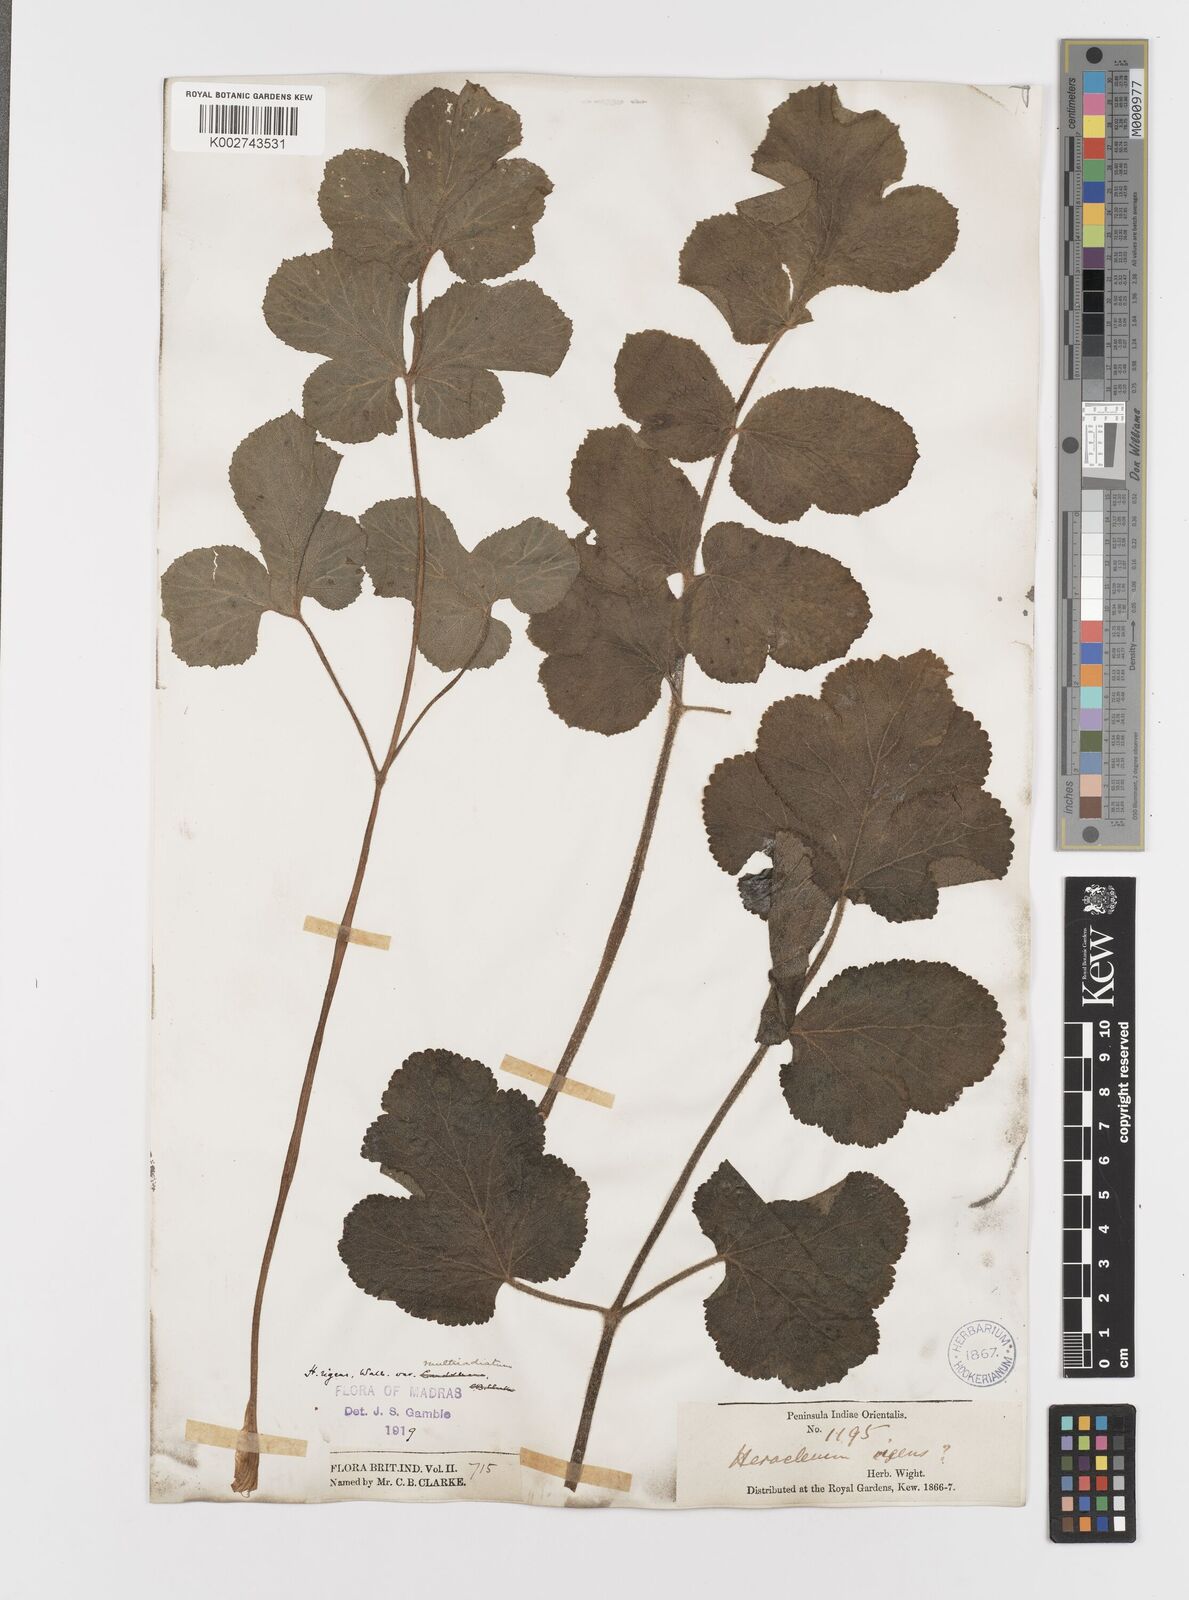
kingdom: Plantae
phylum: Tracheophyta
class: Magnoliopsida
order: Apiales
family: Apiaceae
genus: Tetrataenium
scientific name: Tetrataenium rigens
